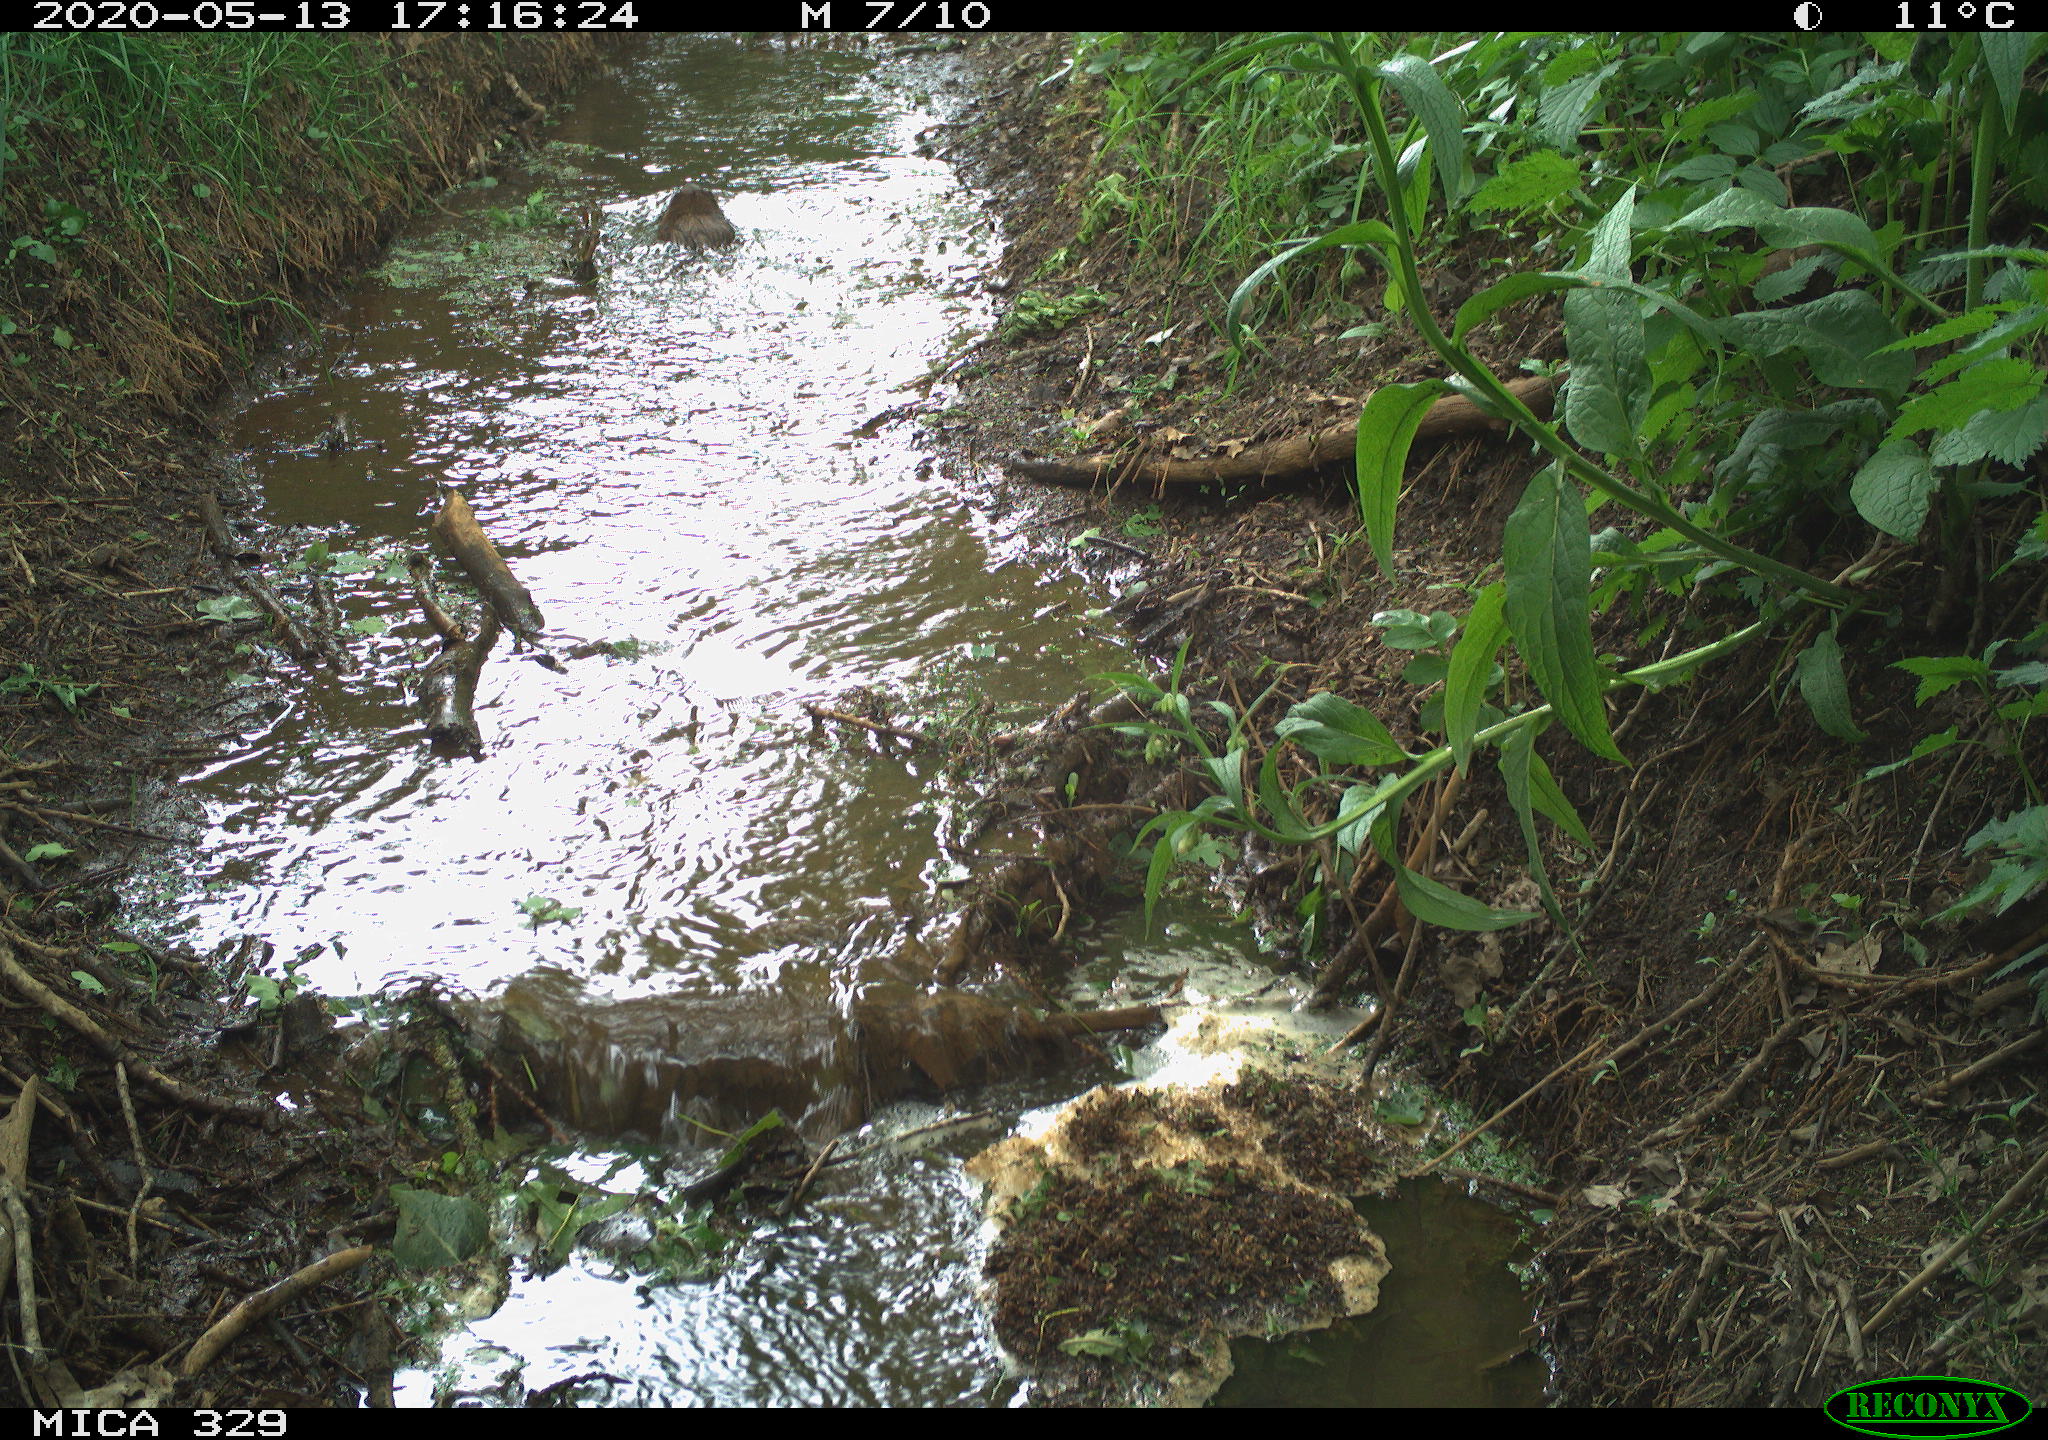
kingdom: Animalia
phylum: Chordata
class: Mammalia
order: Rodentia
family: Cricetidae
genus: Ondatra
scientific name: Ondatra zibethicus
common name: Muskrat
